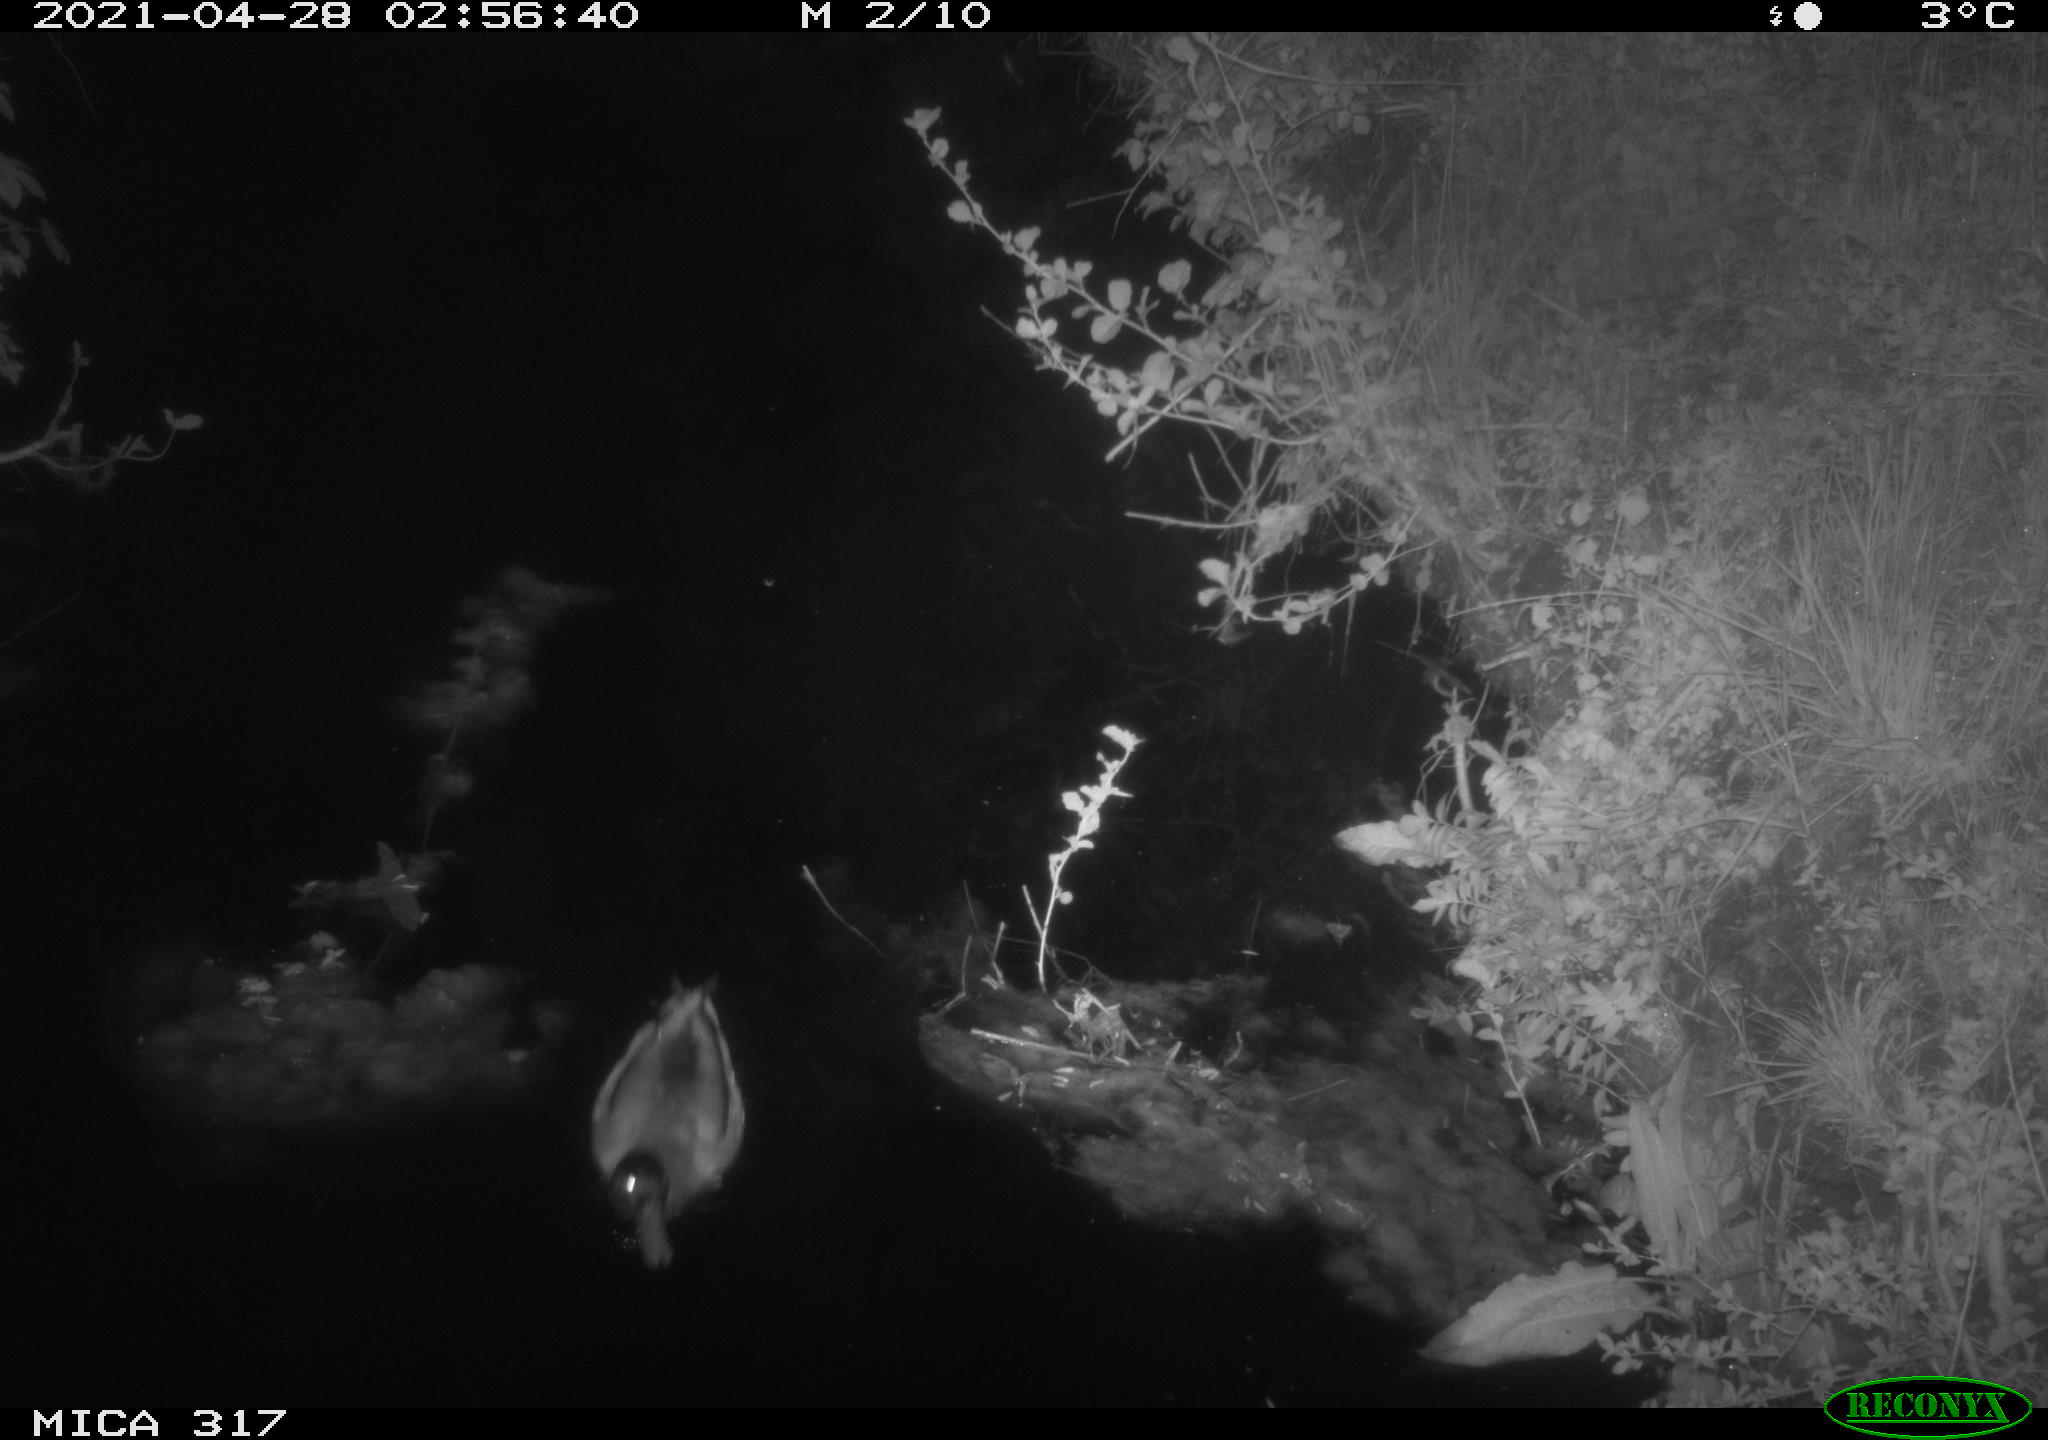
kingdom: Animalia
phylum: Chordata
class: Aves
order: Anseriformes
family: Anatidae
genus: Anas
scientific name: Anas
